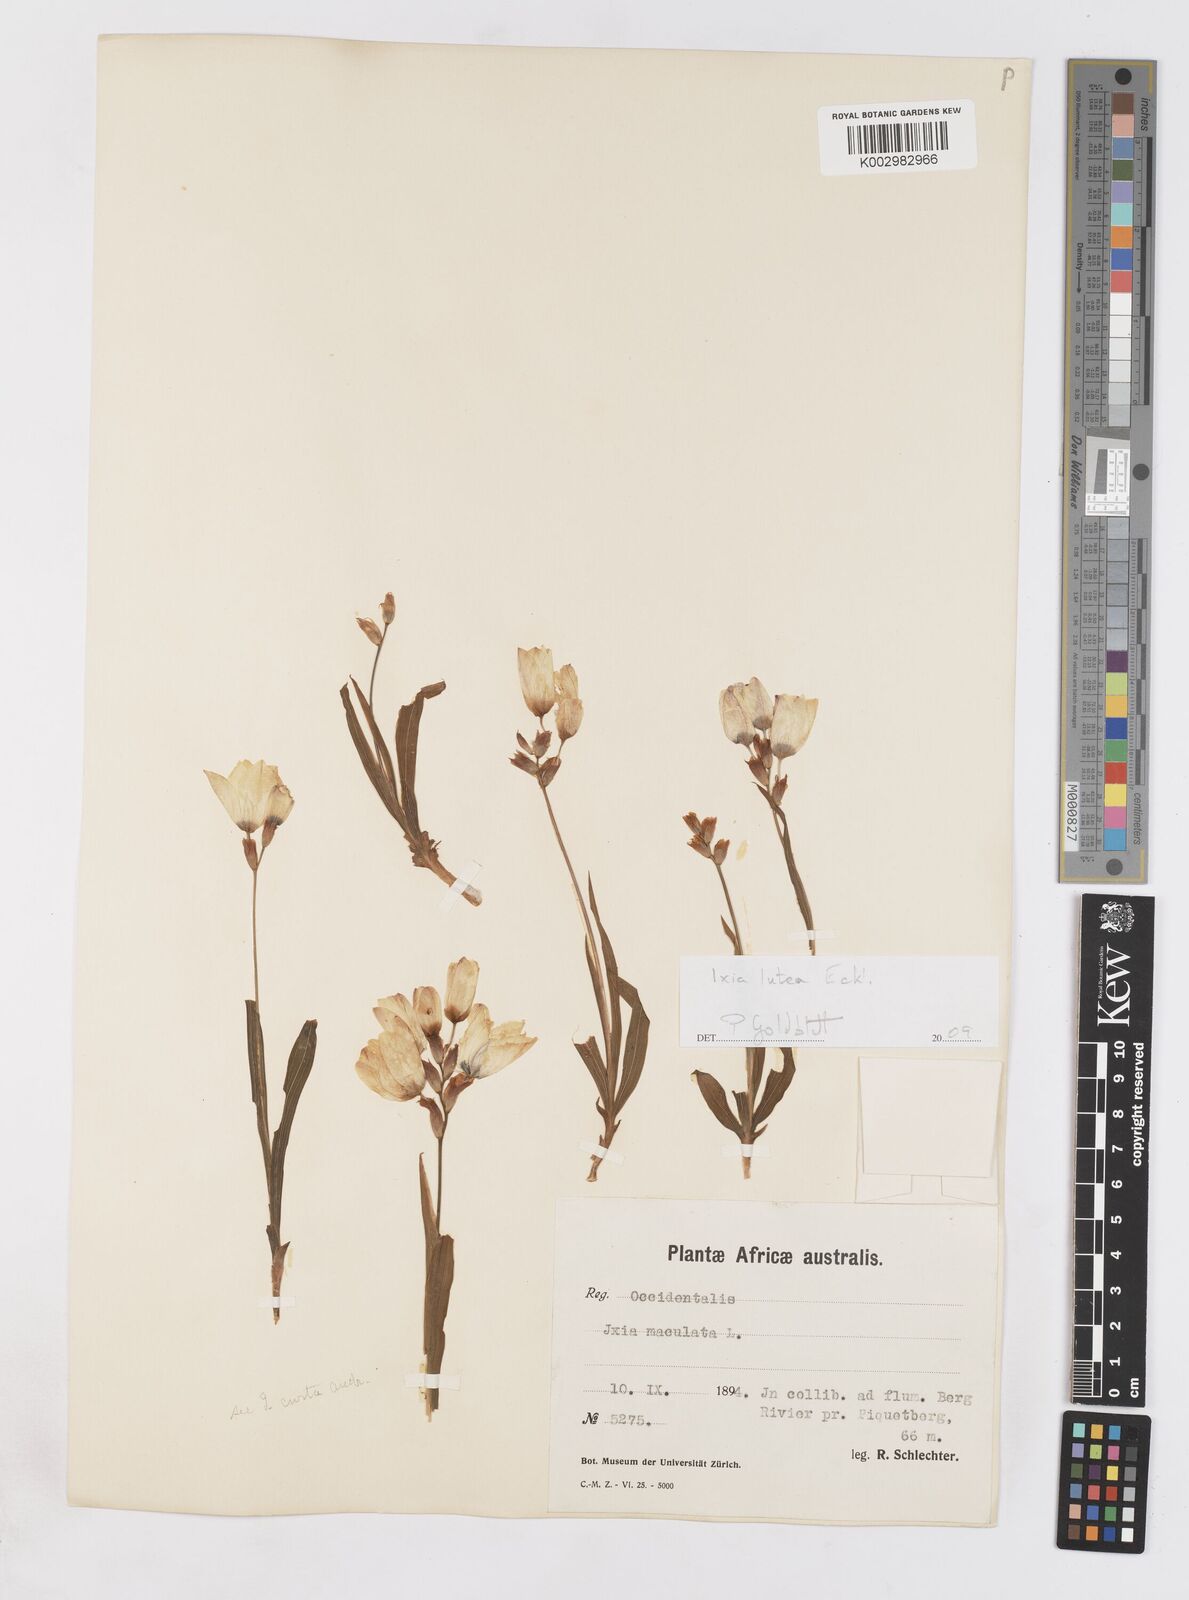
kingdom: Plantae
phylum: Tracheophyta
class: Liliopsida
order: Asparagales
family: Iridaceae
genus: Ixia
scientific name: Ixia abbreviata
